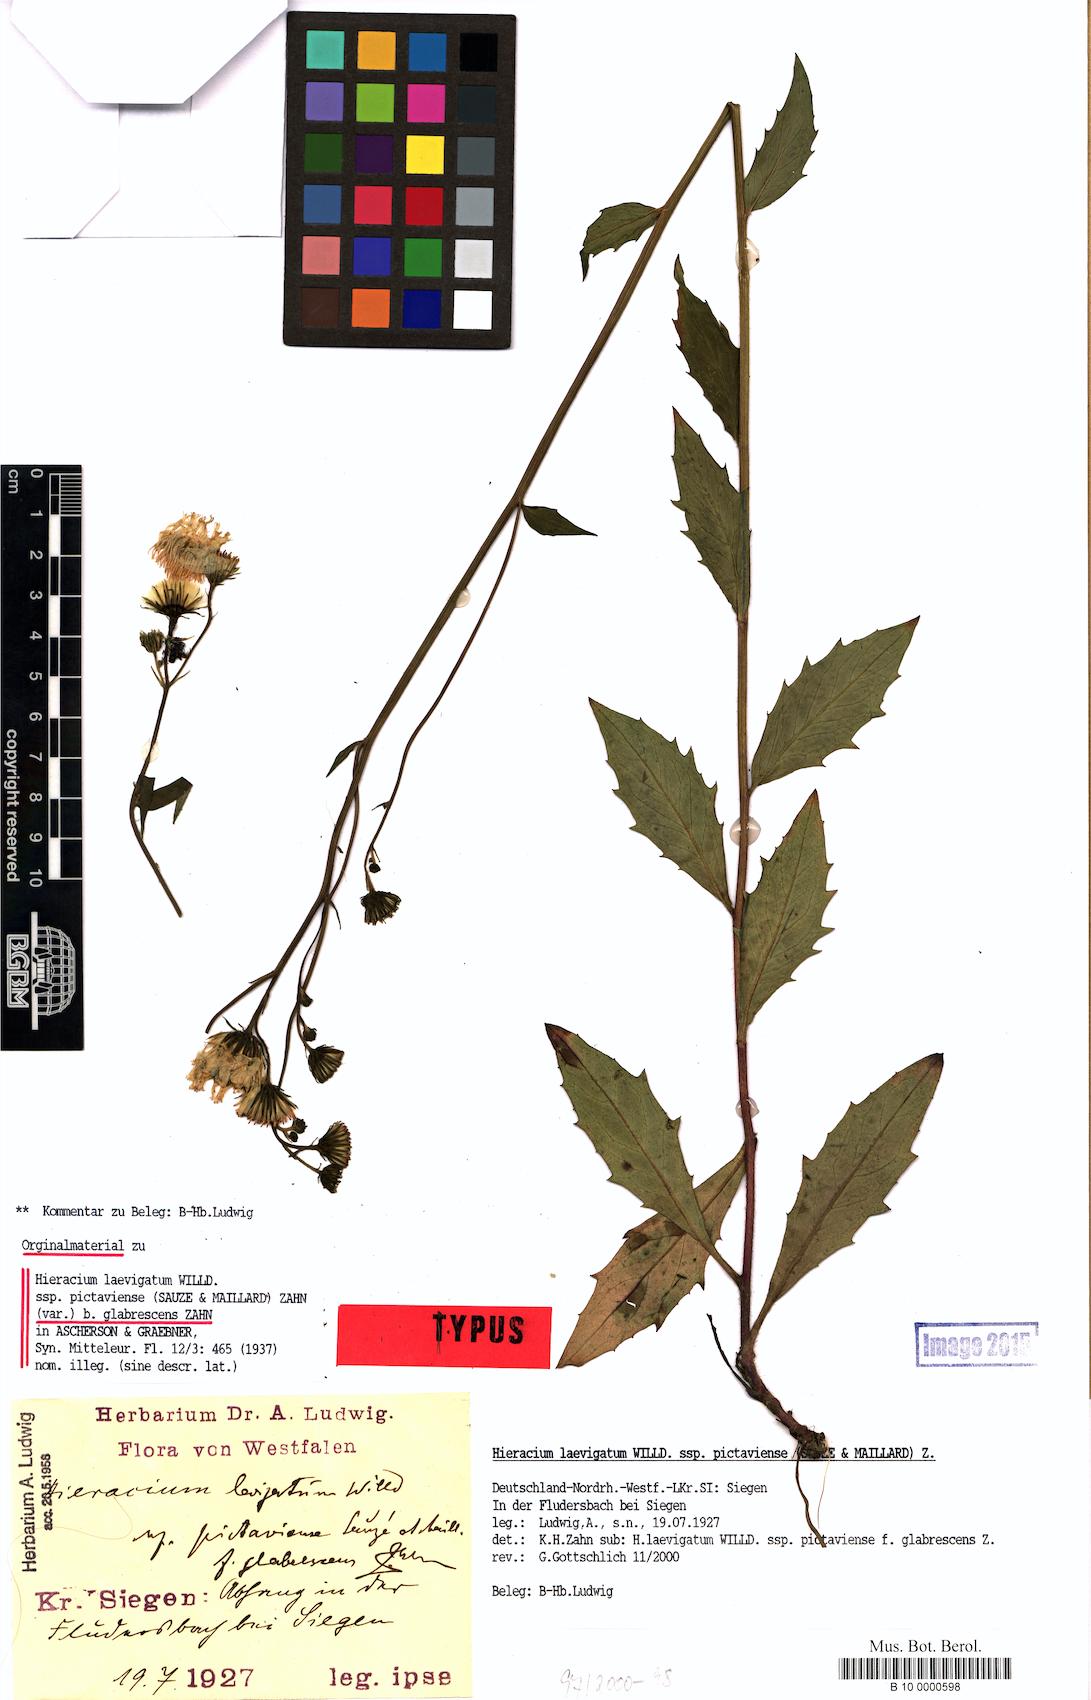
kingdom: Plantae
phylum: Tracheophyta
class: Magnoliopsida
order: Asterales
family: Asteraceae
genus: Hieracium
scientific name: Hieracium
